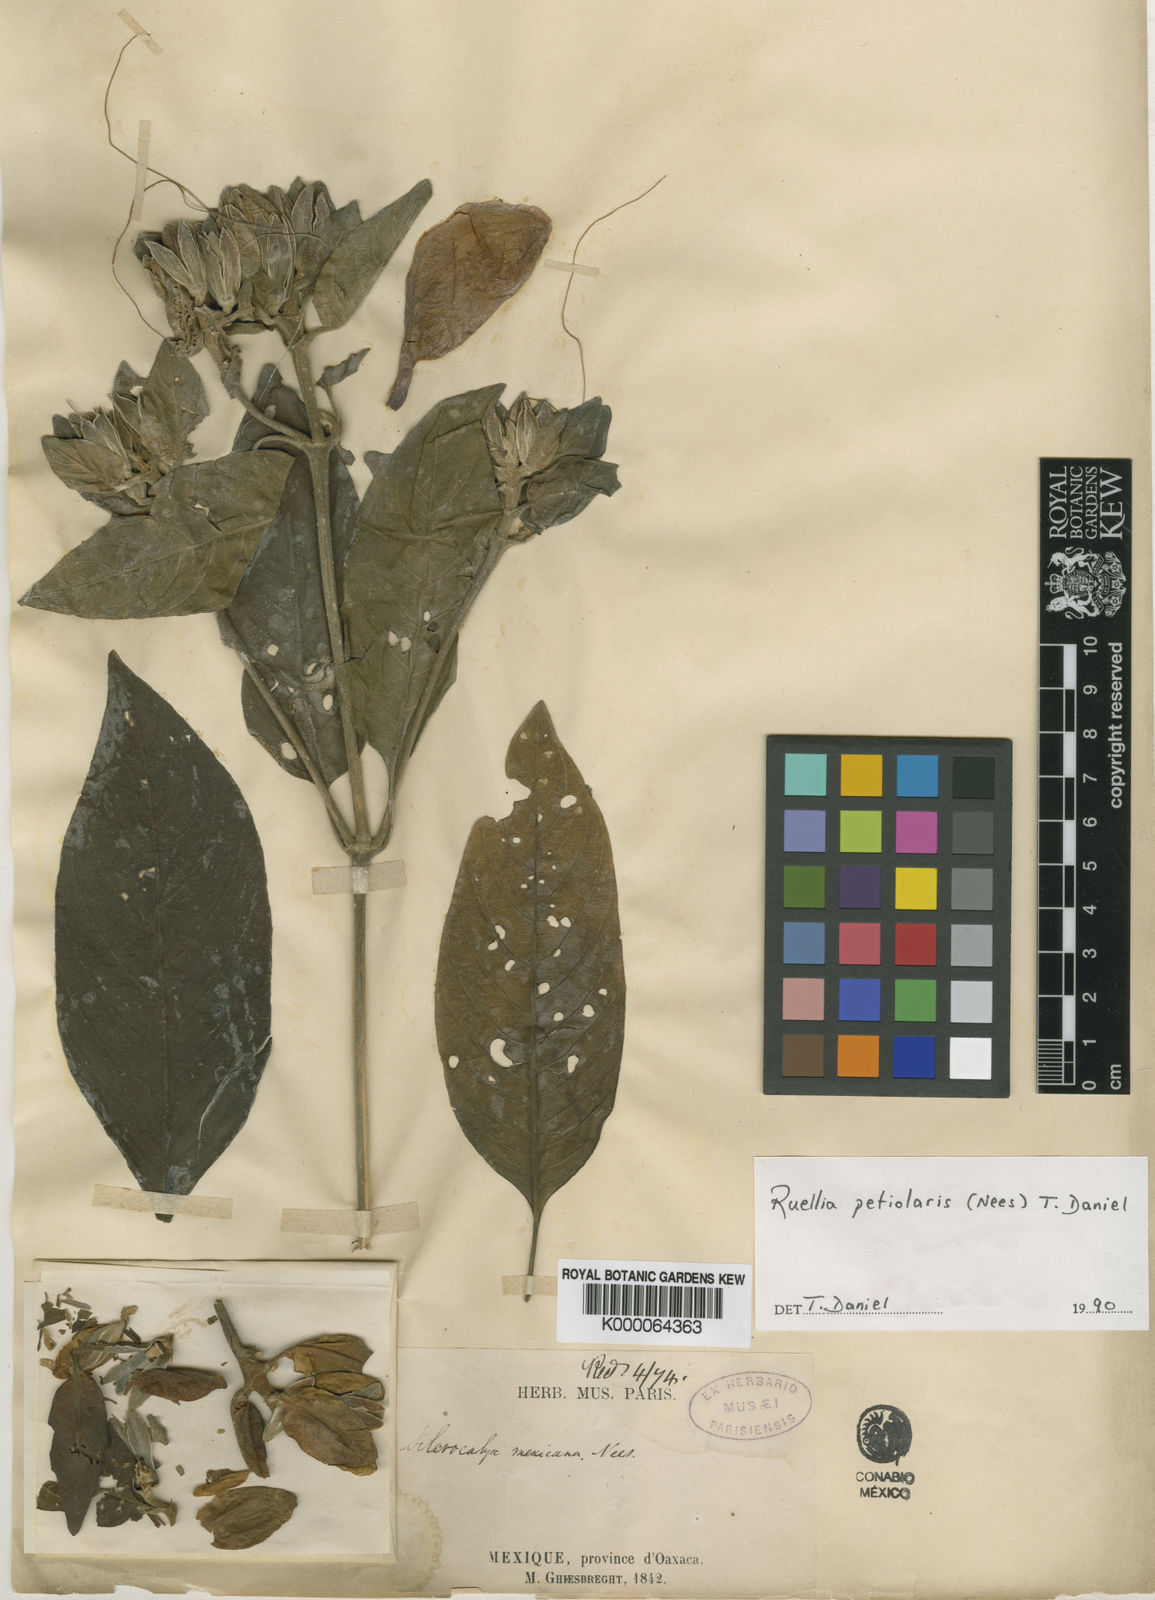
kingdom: Plantae
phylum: Tracheophyta
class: Magnoliopsida
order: Lamiales
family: Acanthaceae
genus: Ruellia
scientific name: Ruellia petiolaris
